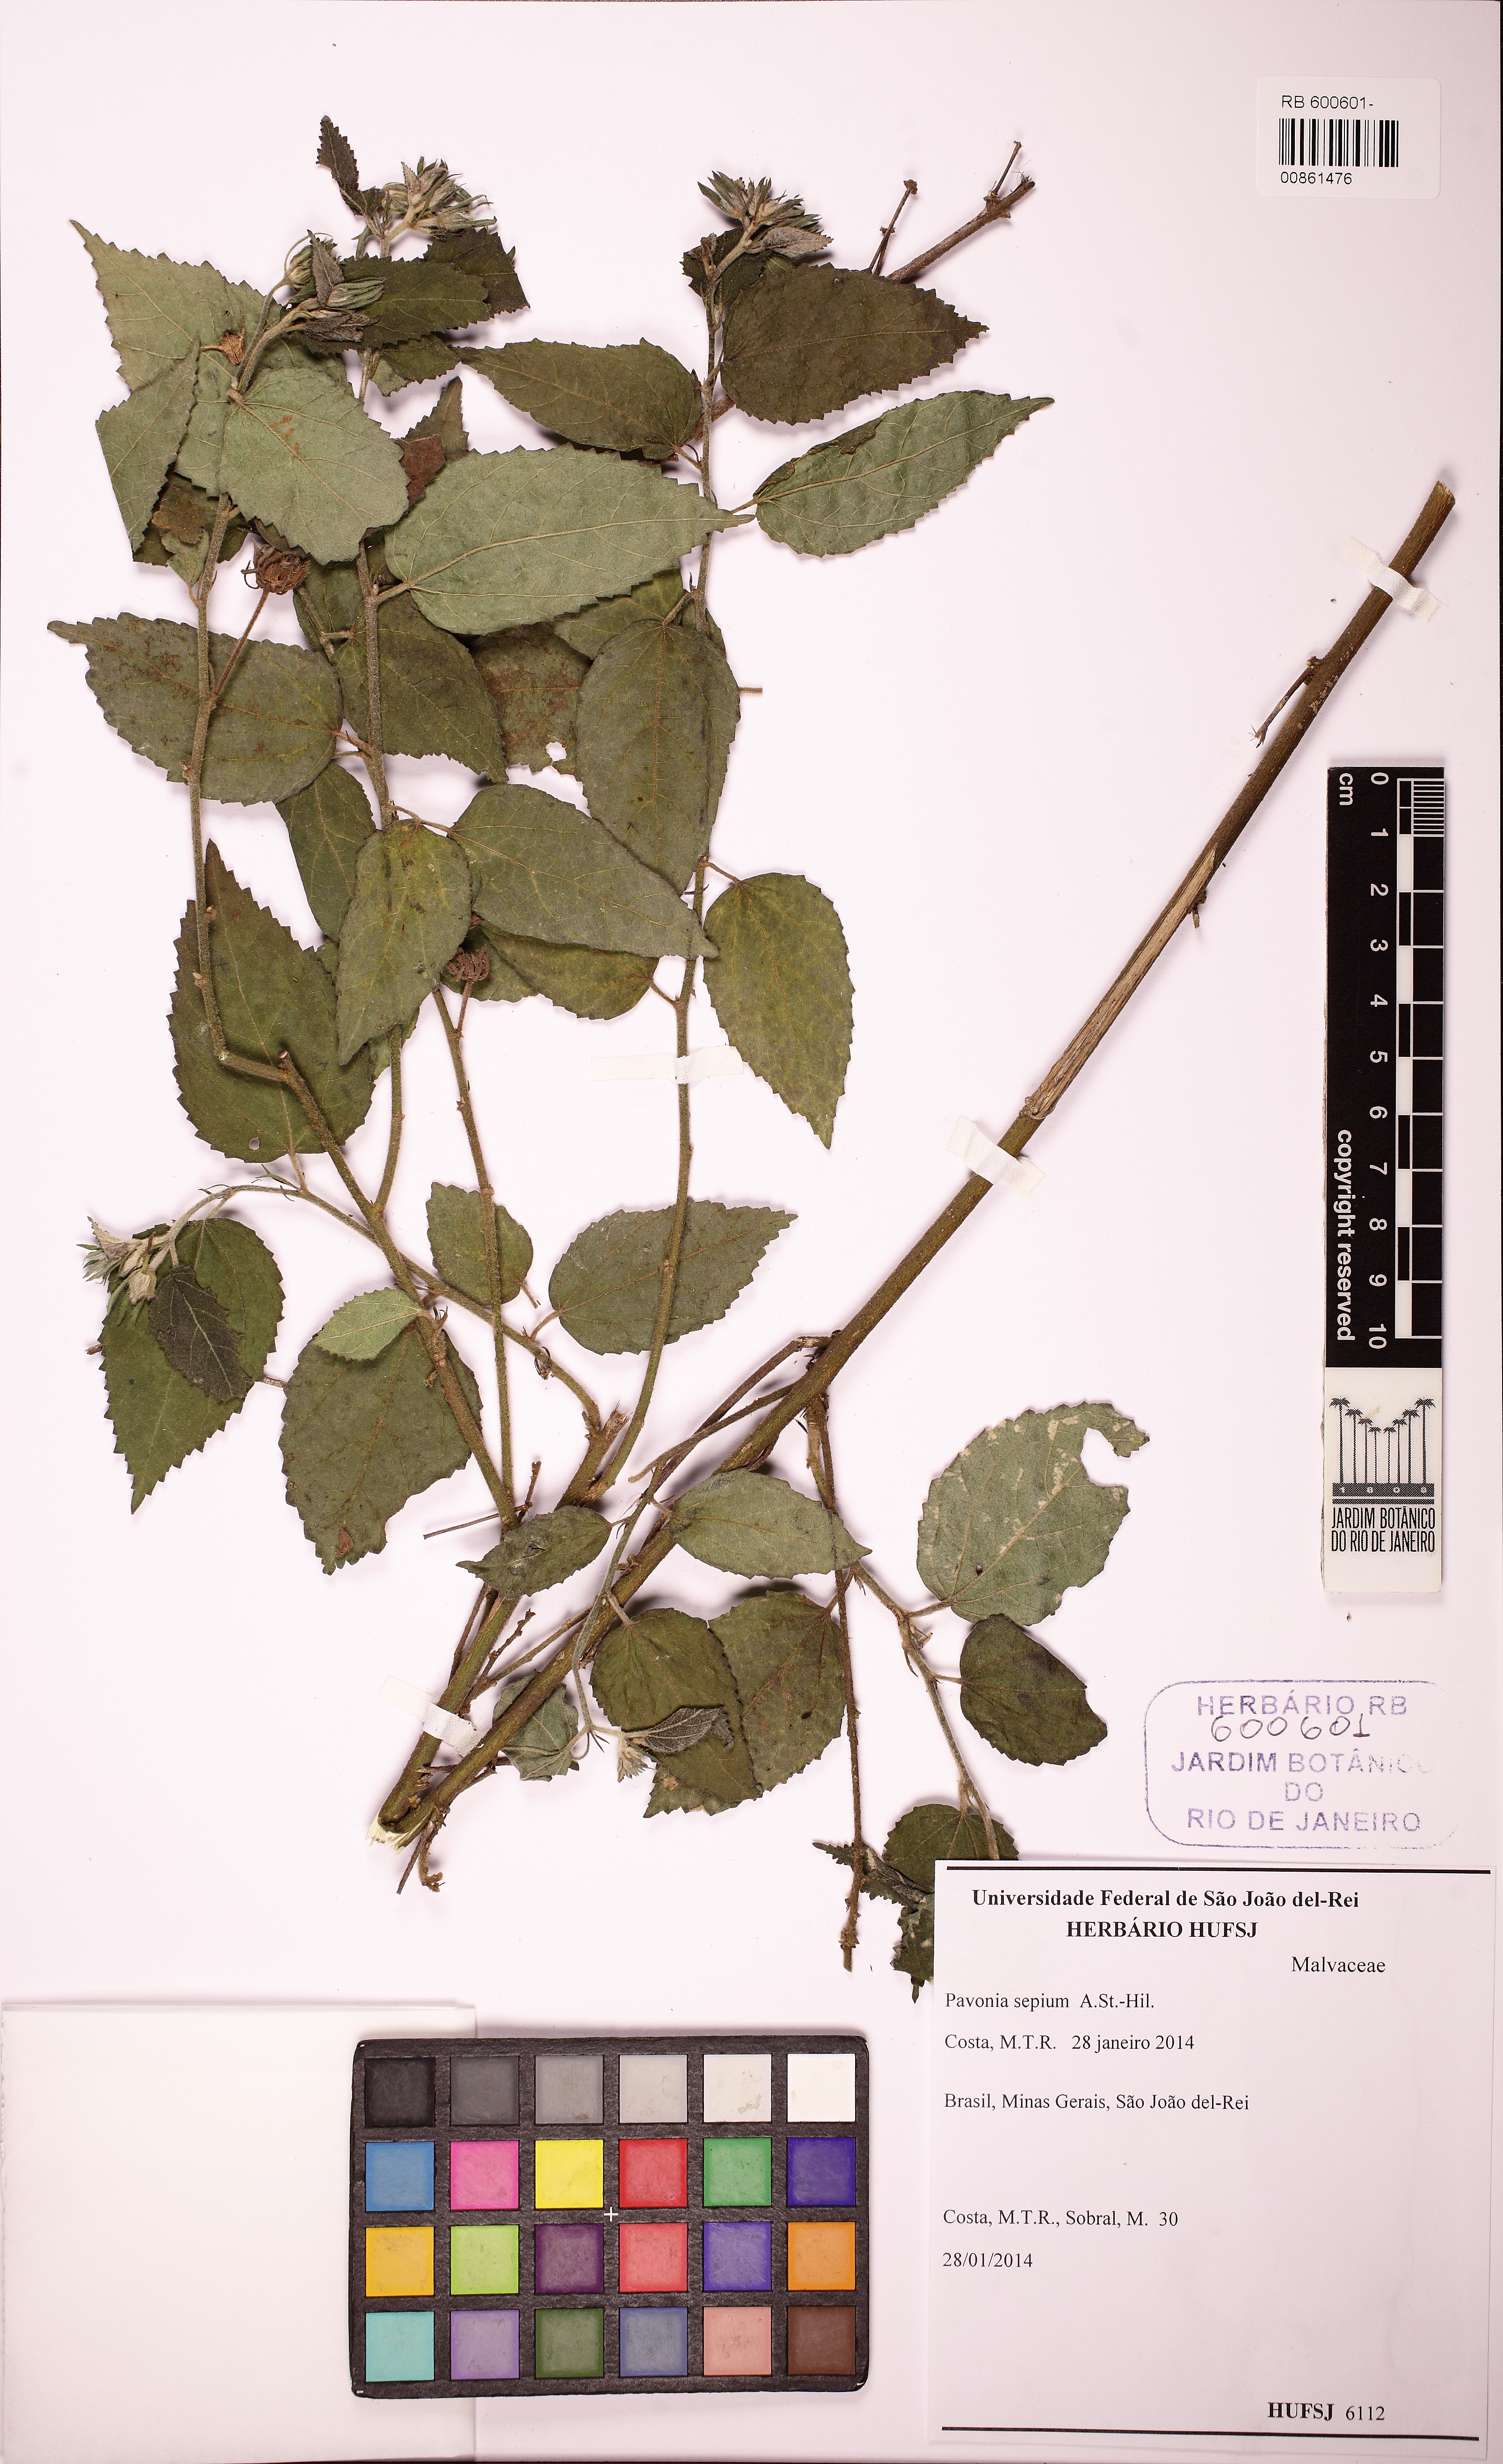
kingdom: Plantae
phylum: Tracheophyta
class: Magnoliopsida
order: Malvales
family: Malvaceae
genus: Pavonia
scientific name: Pavonia sepium
